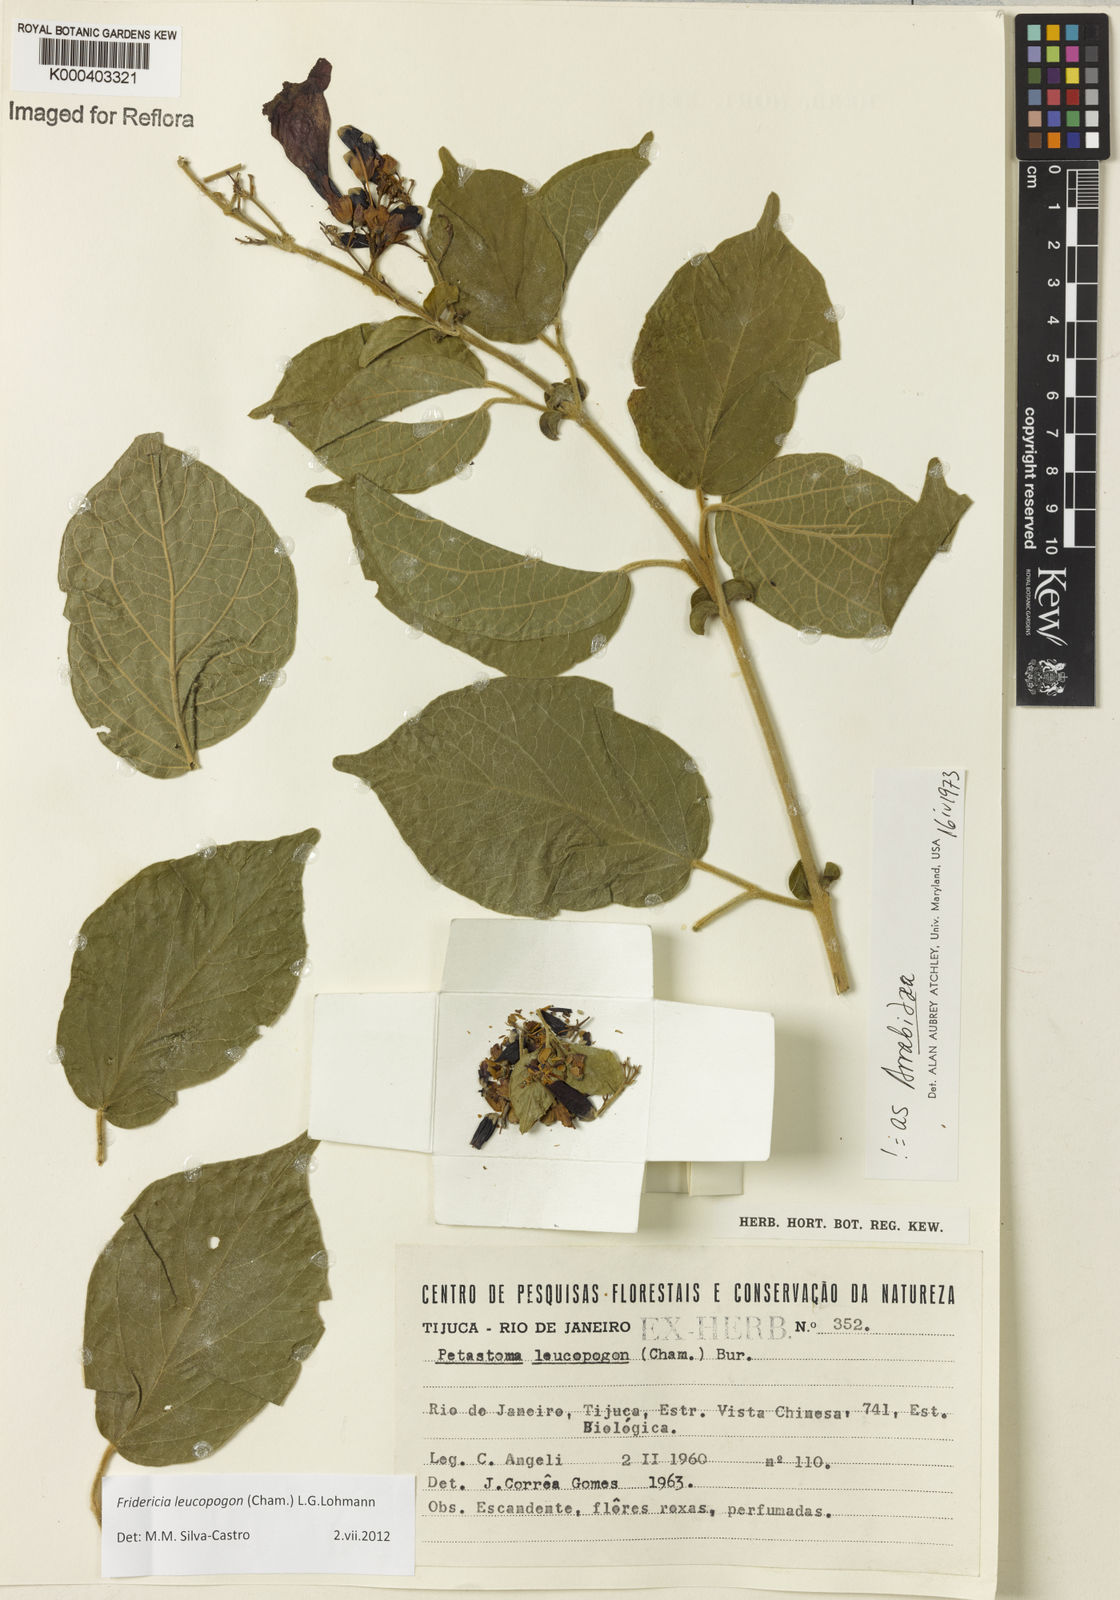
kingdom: Plantae
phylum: Tracheophyta
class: Magnoliopsida
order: Lamiales
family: Bignoniaceae
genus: Fridericia
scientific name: Fridericia leucopogon
